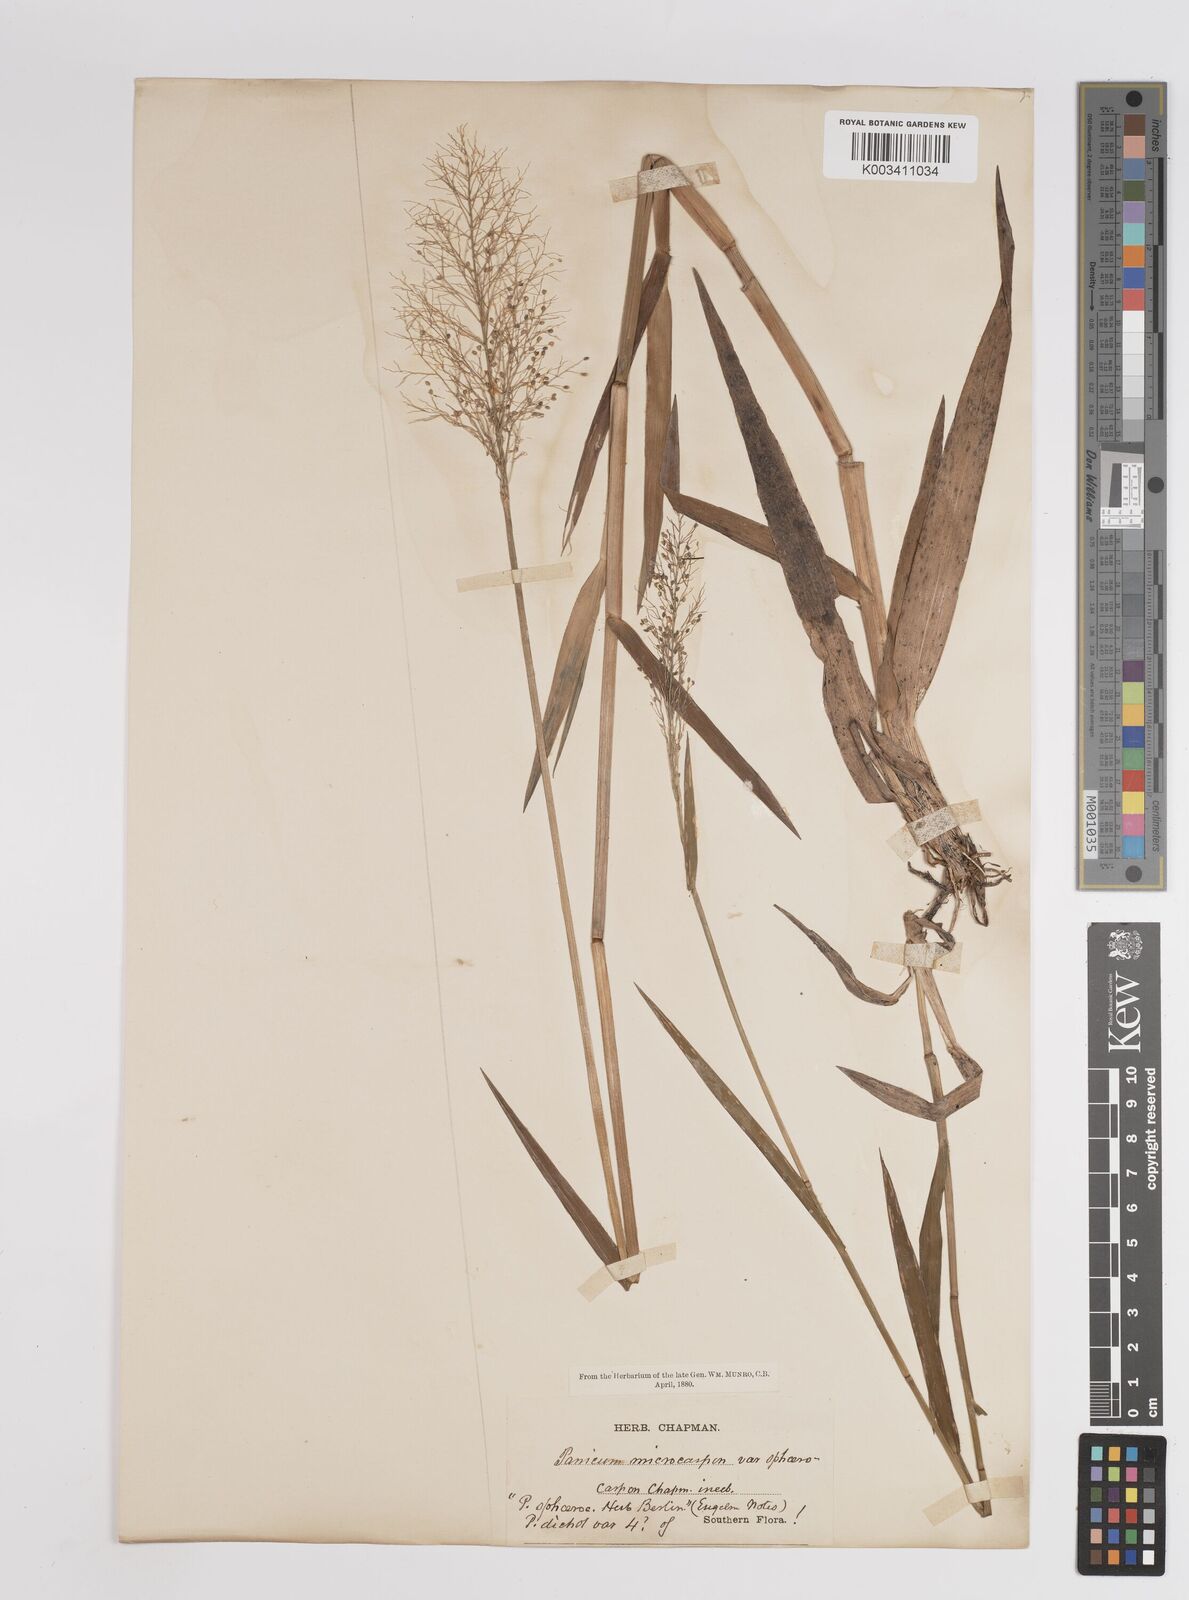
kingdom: Plantae
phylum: Tracheophyta
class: Liliopsida
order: Poales
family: Poaceae
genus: Setaria
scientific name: Setaria tenax
